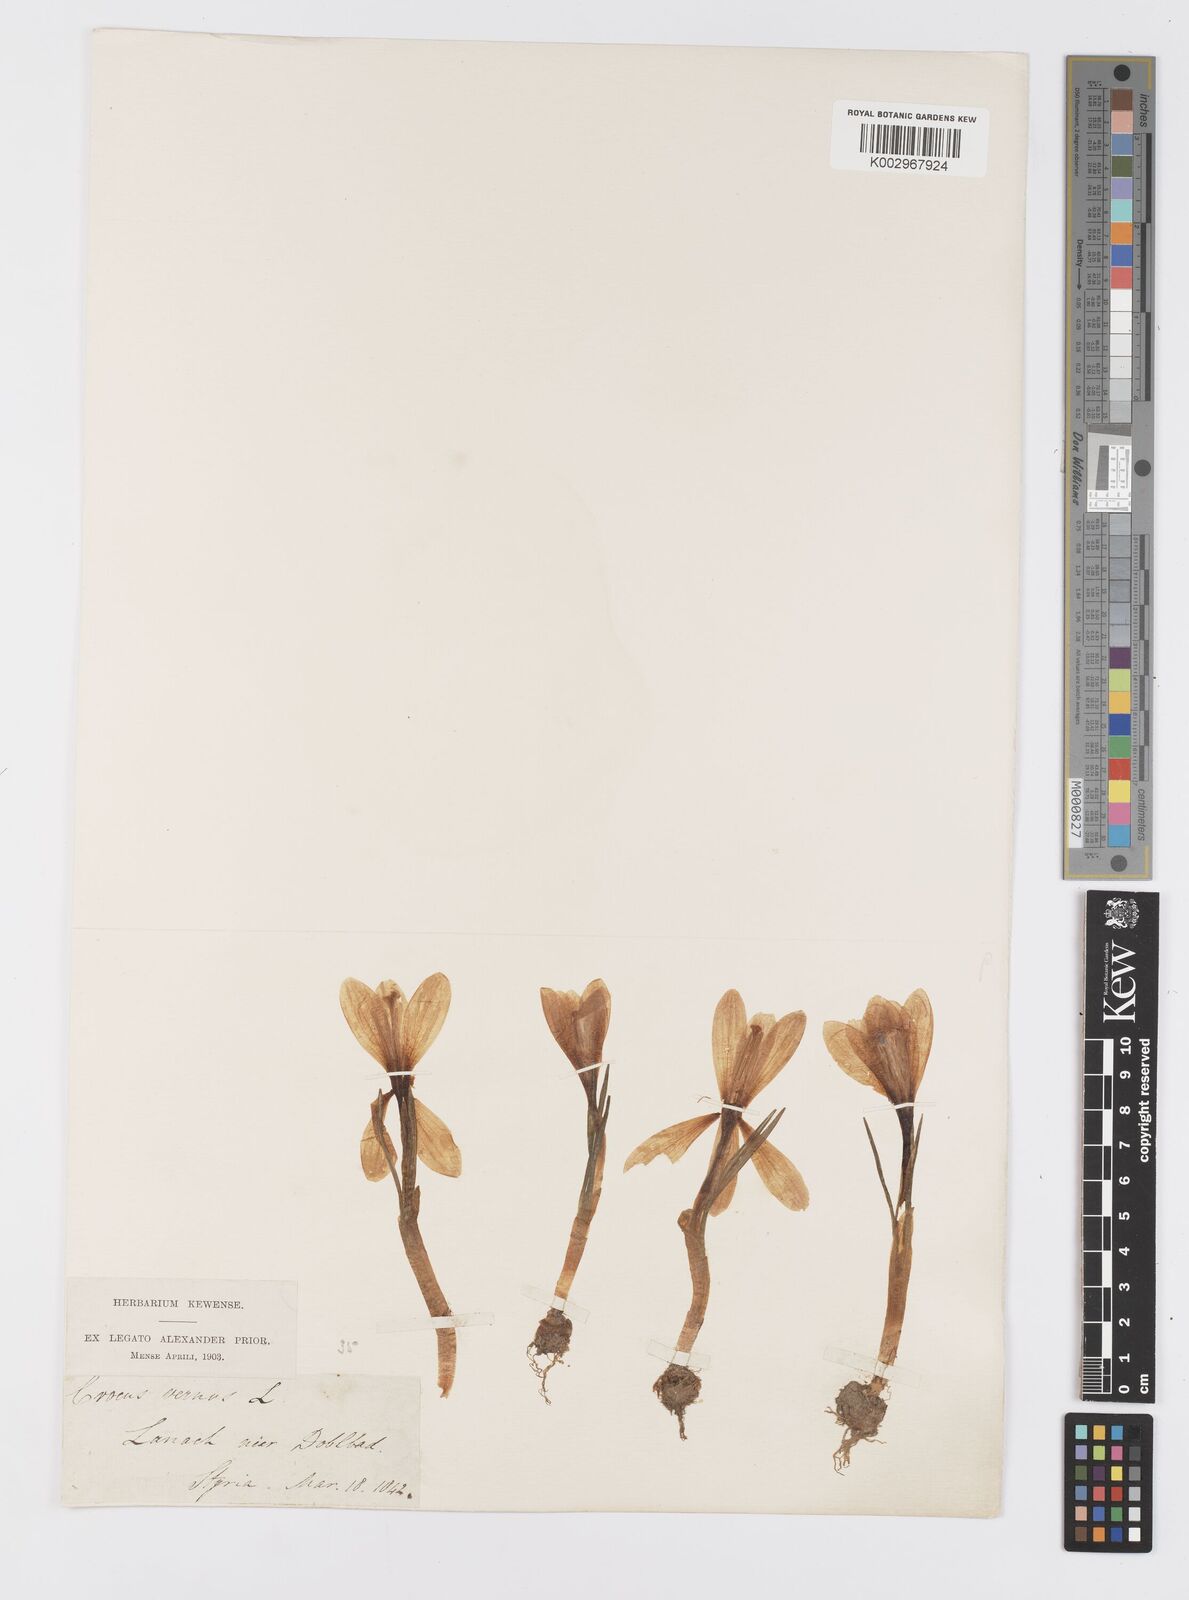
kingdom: Plantae
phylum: Tracheophyta
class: Liliopsida
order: Asparagales
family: Iridaceae
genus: Crocus
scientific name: Crocus
